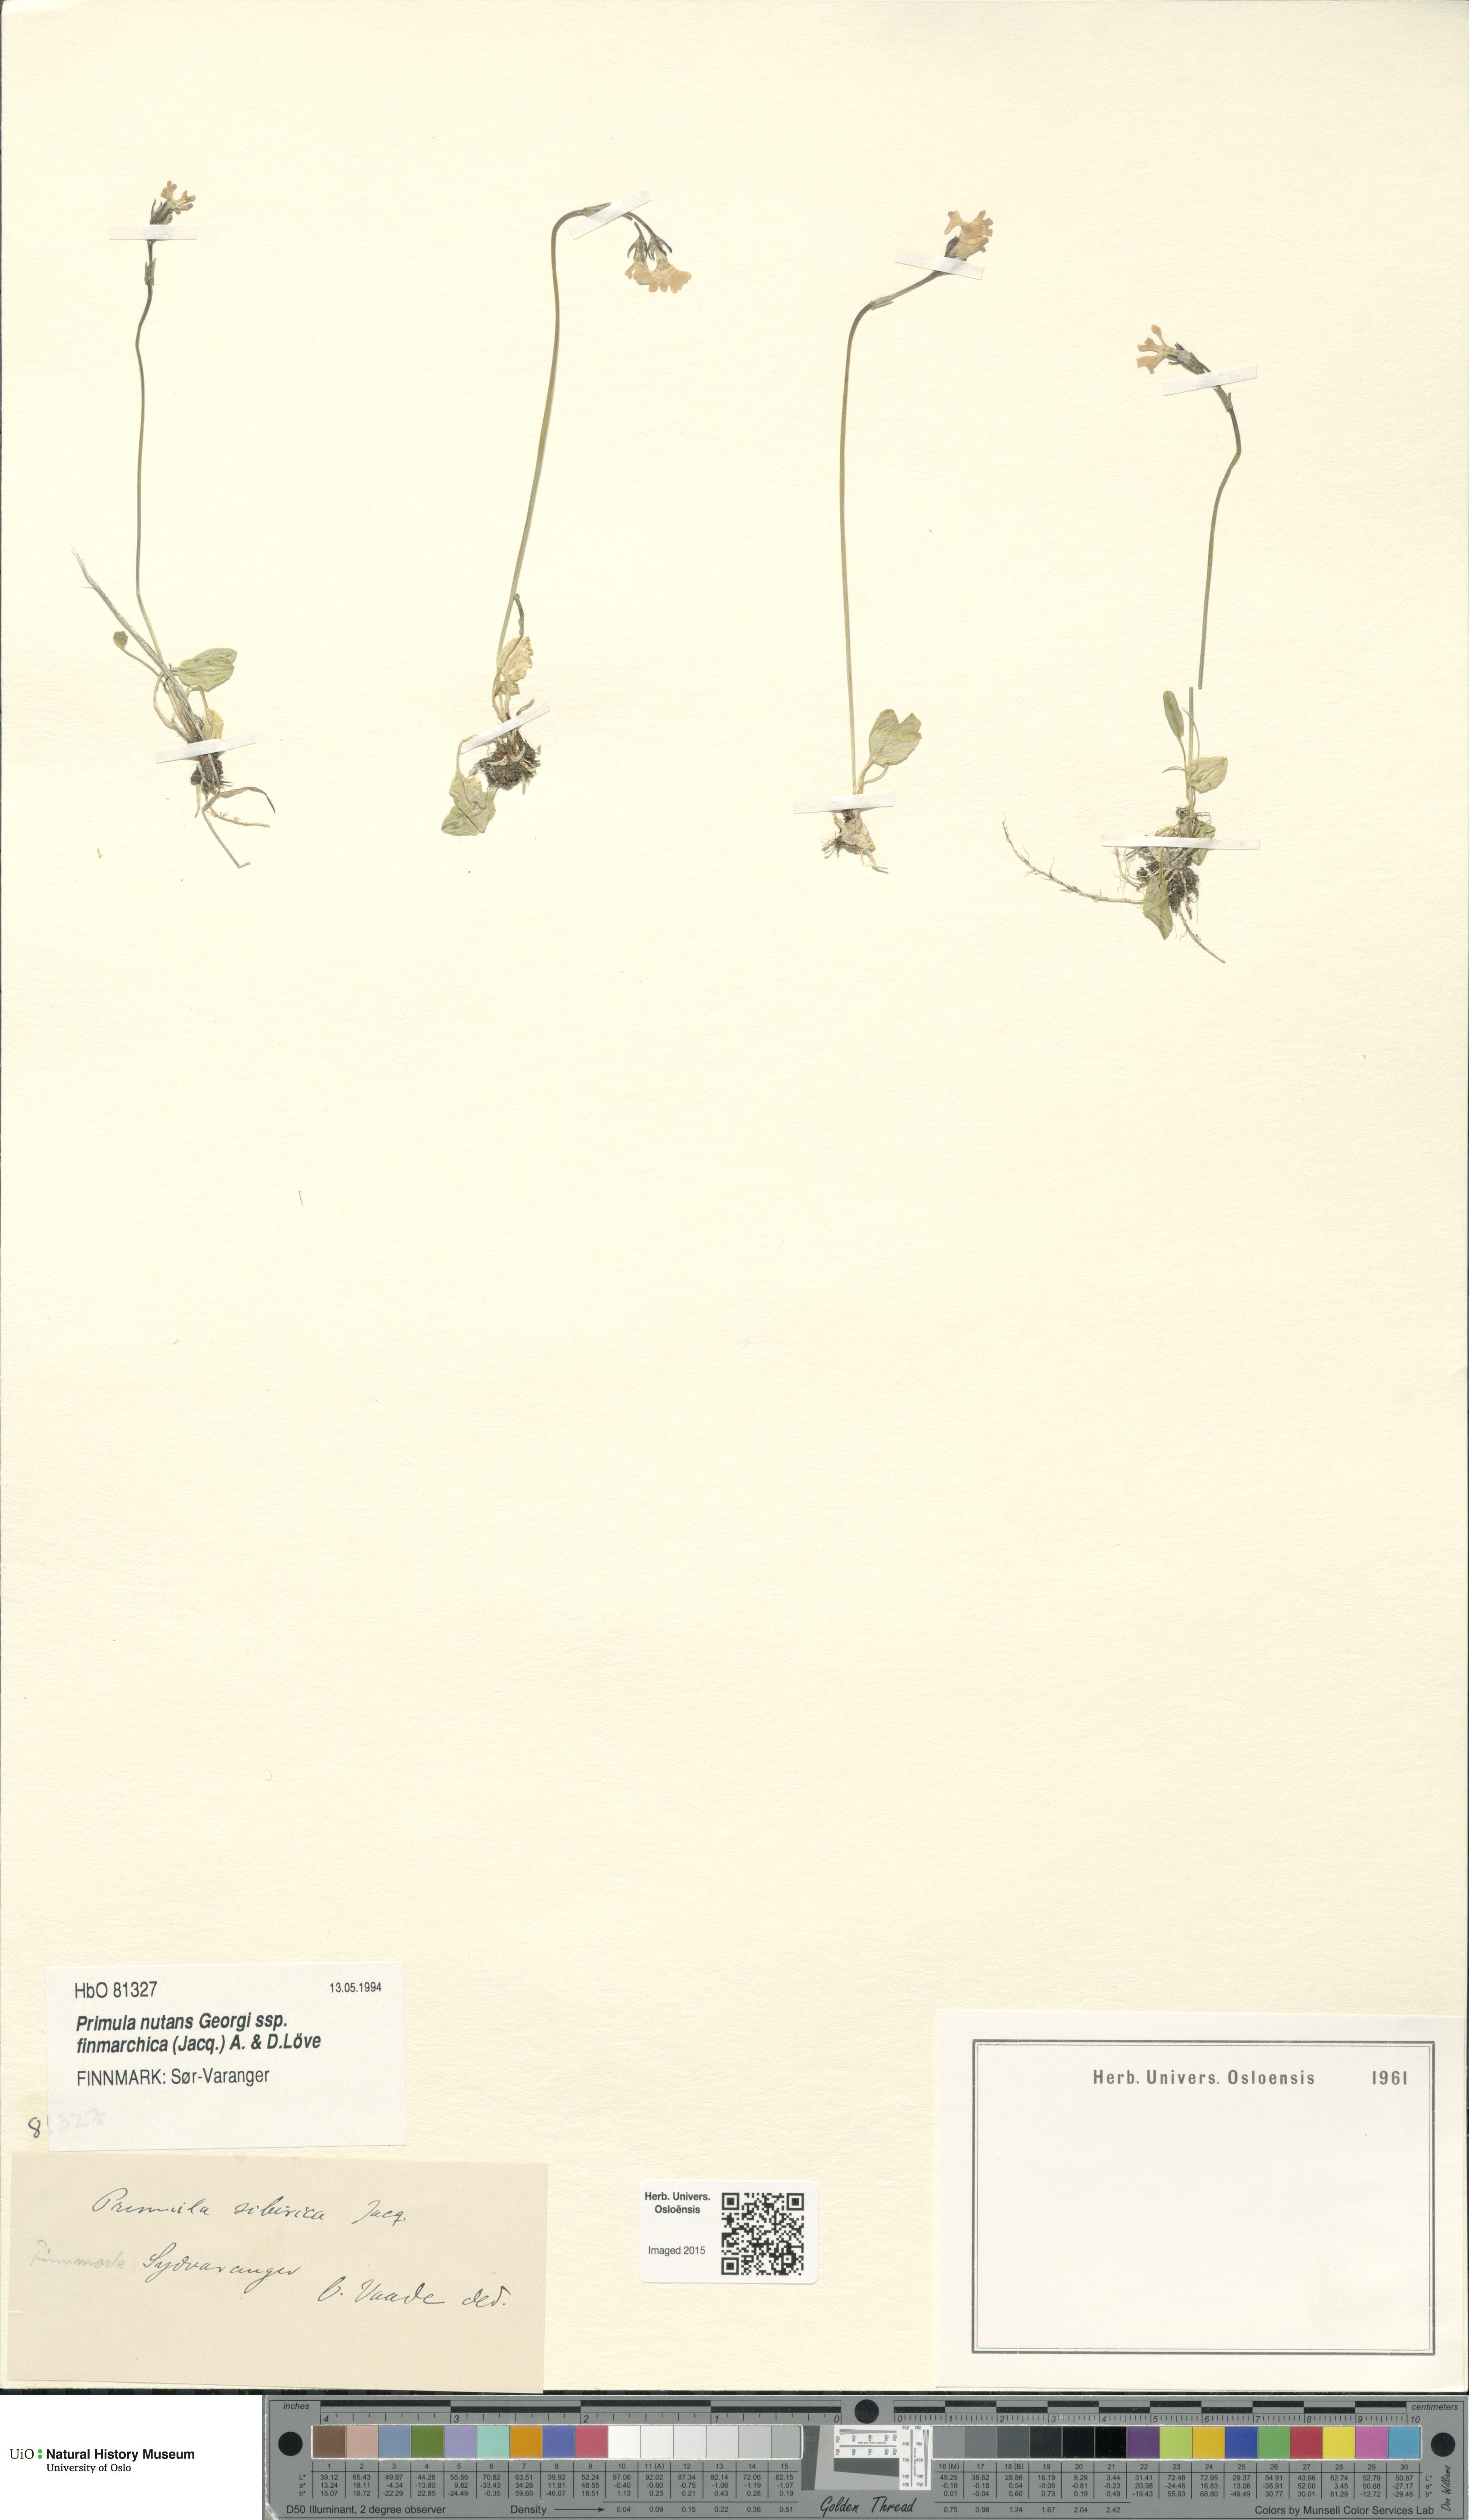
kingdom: Plantae
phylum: Tracheophyta
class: Magnoliopsida
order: Ericales
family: Primulaceae
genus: Primula
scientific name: Primula nutans
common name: Siberian primrose
